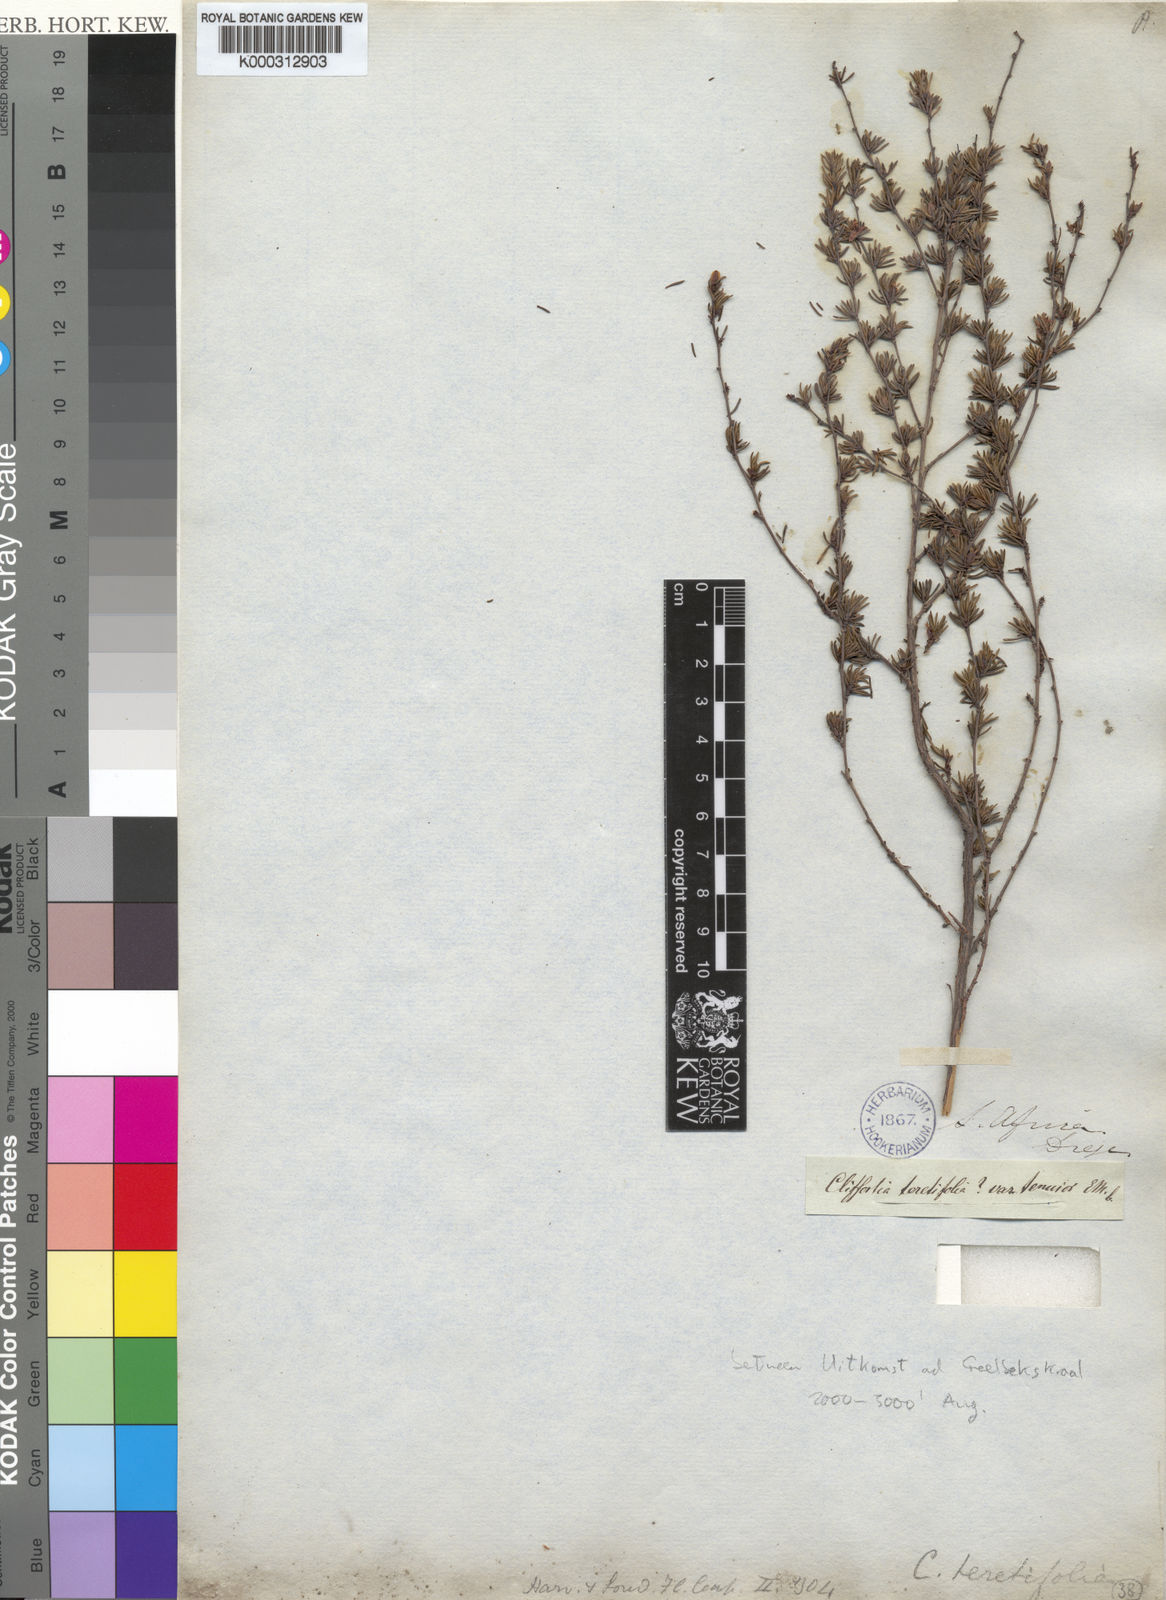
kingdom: Plantae
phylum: Tracheophyta
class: Magnoliopsida
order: Rosales
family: Rosaceae
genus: Cliffortia
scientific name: Cliffortia
